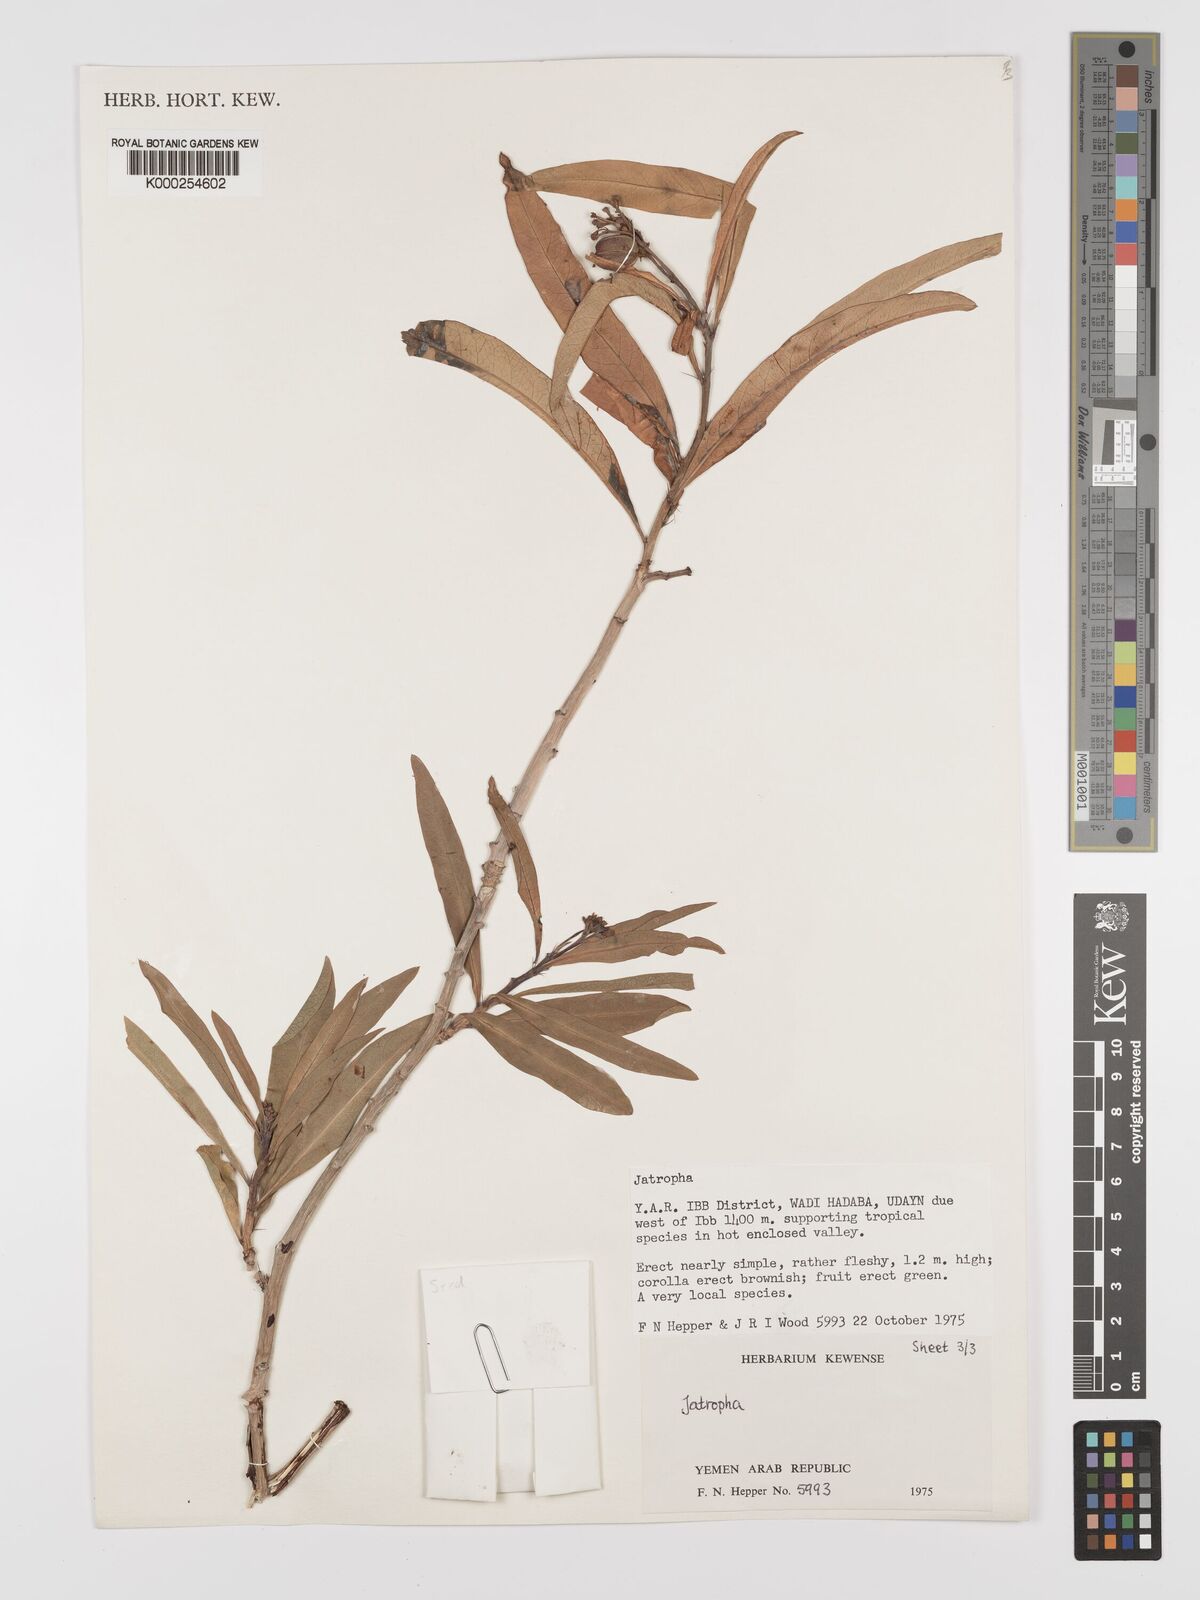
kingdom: Plantae
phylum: Tracheophyta
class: Magnoliopsida
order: Malpighiales
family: Euphorbiaceae
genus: Jatropha
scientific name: Jatropha variegata
